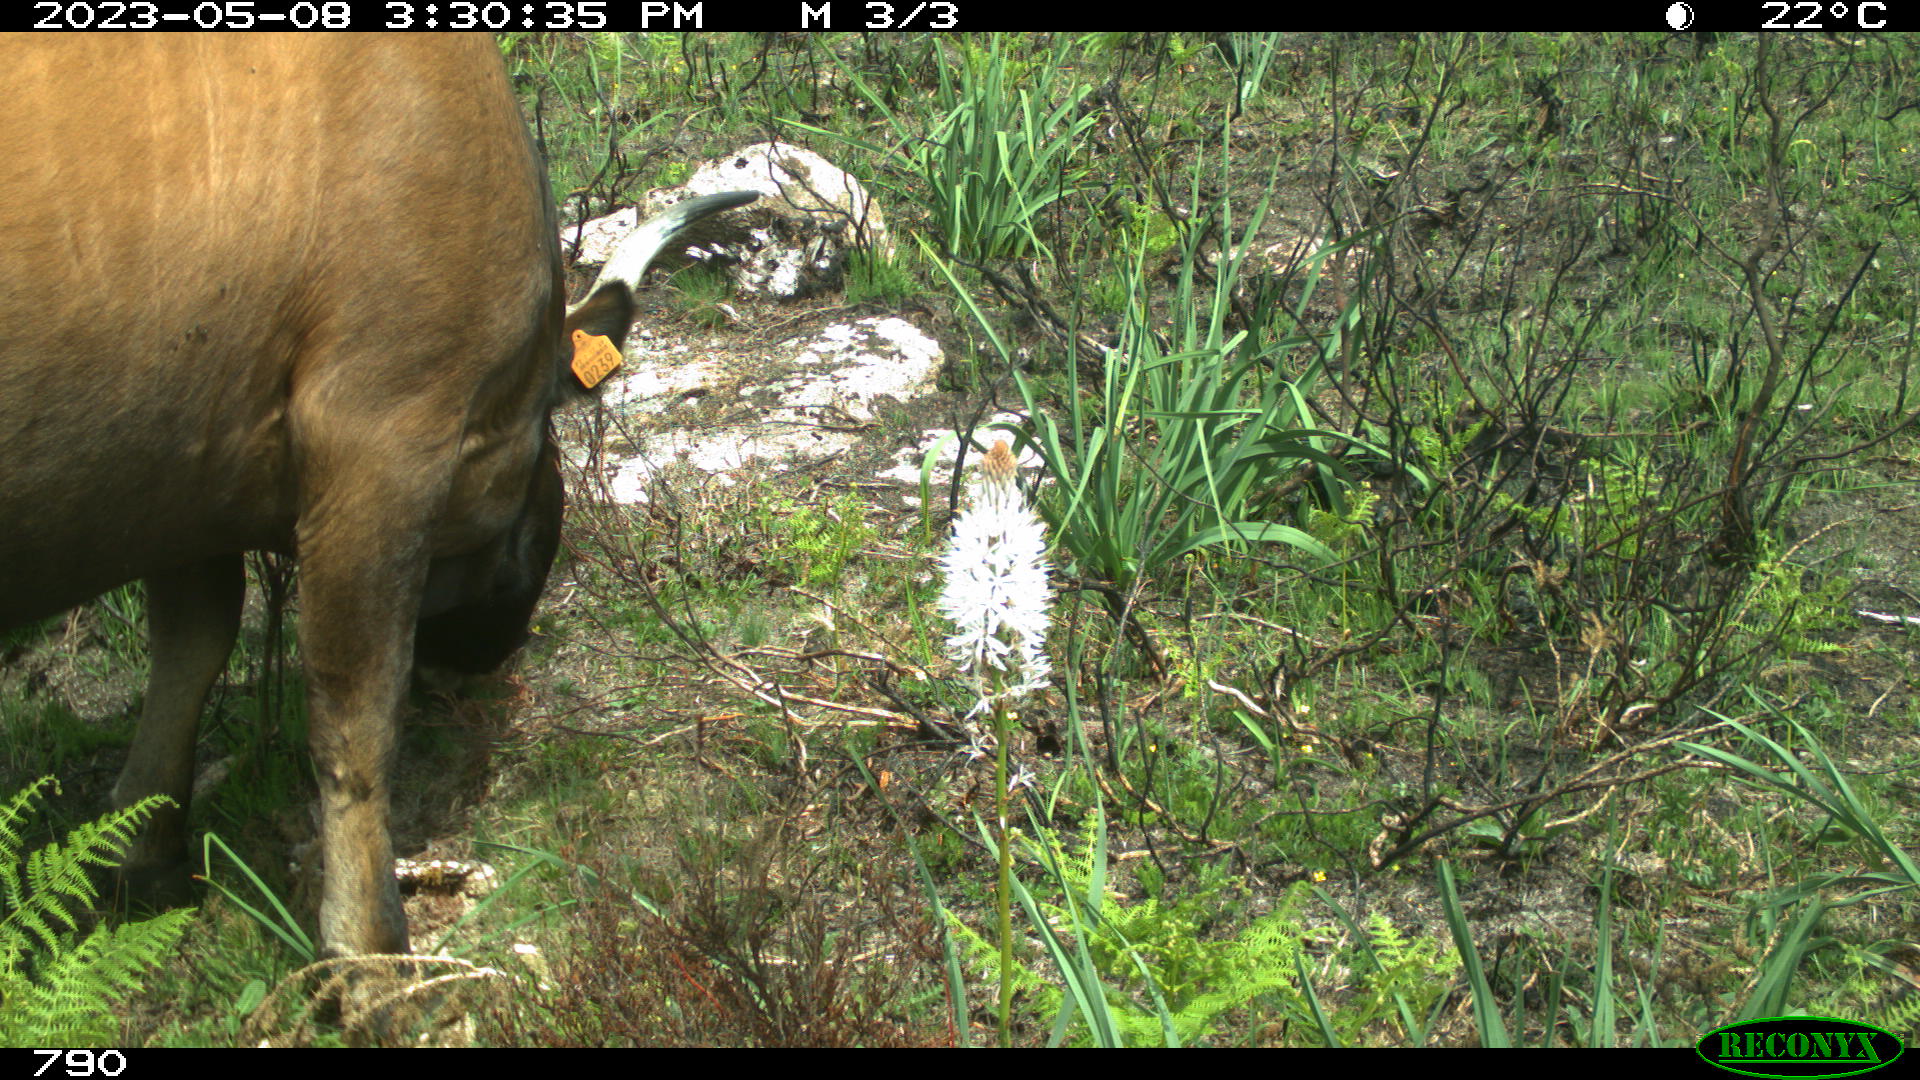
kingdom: Animalia
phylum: Chordata
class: Mammalia
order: Artiodactyla
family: Bovidae
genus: Bos
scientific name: Bos taurus
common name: Domesticated cattle
